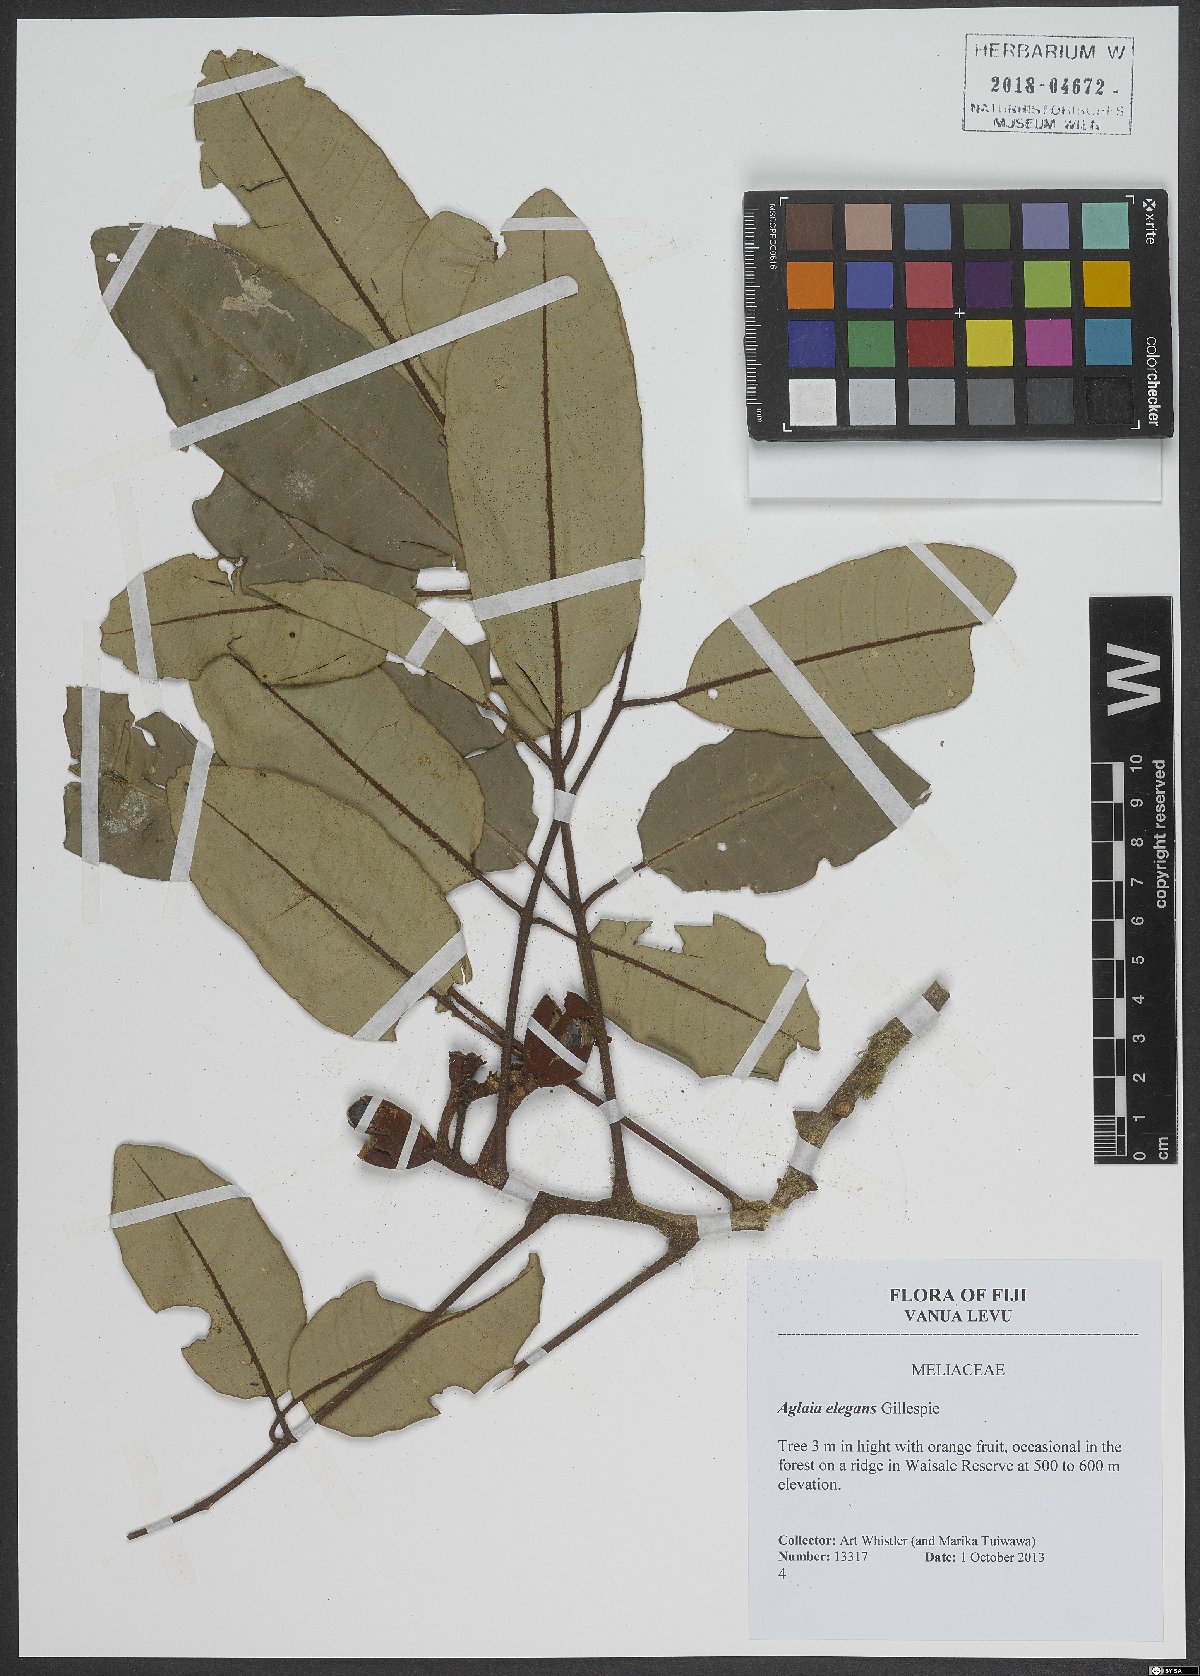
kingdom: Plantae
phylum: Tracheophyta
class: Magnoliopsida
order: Sapindales
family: Meliaceae
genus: Aglaia
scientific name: Aglaia basiphylla
